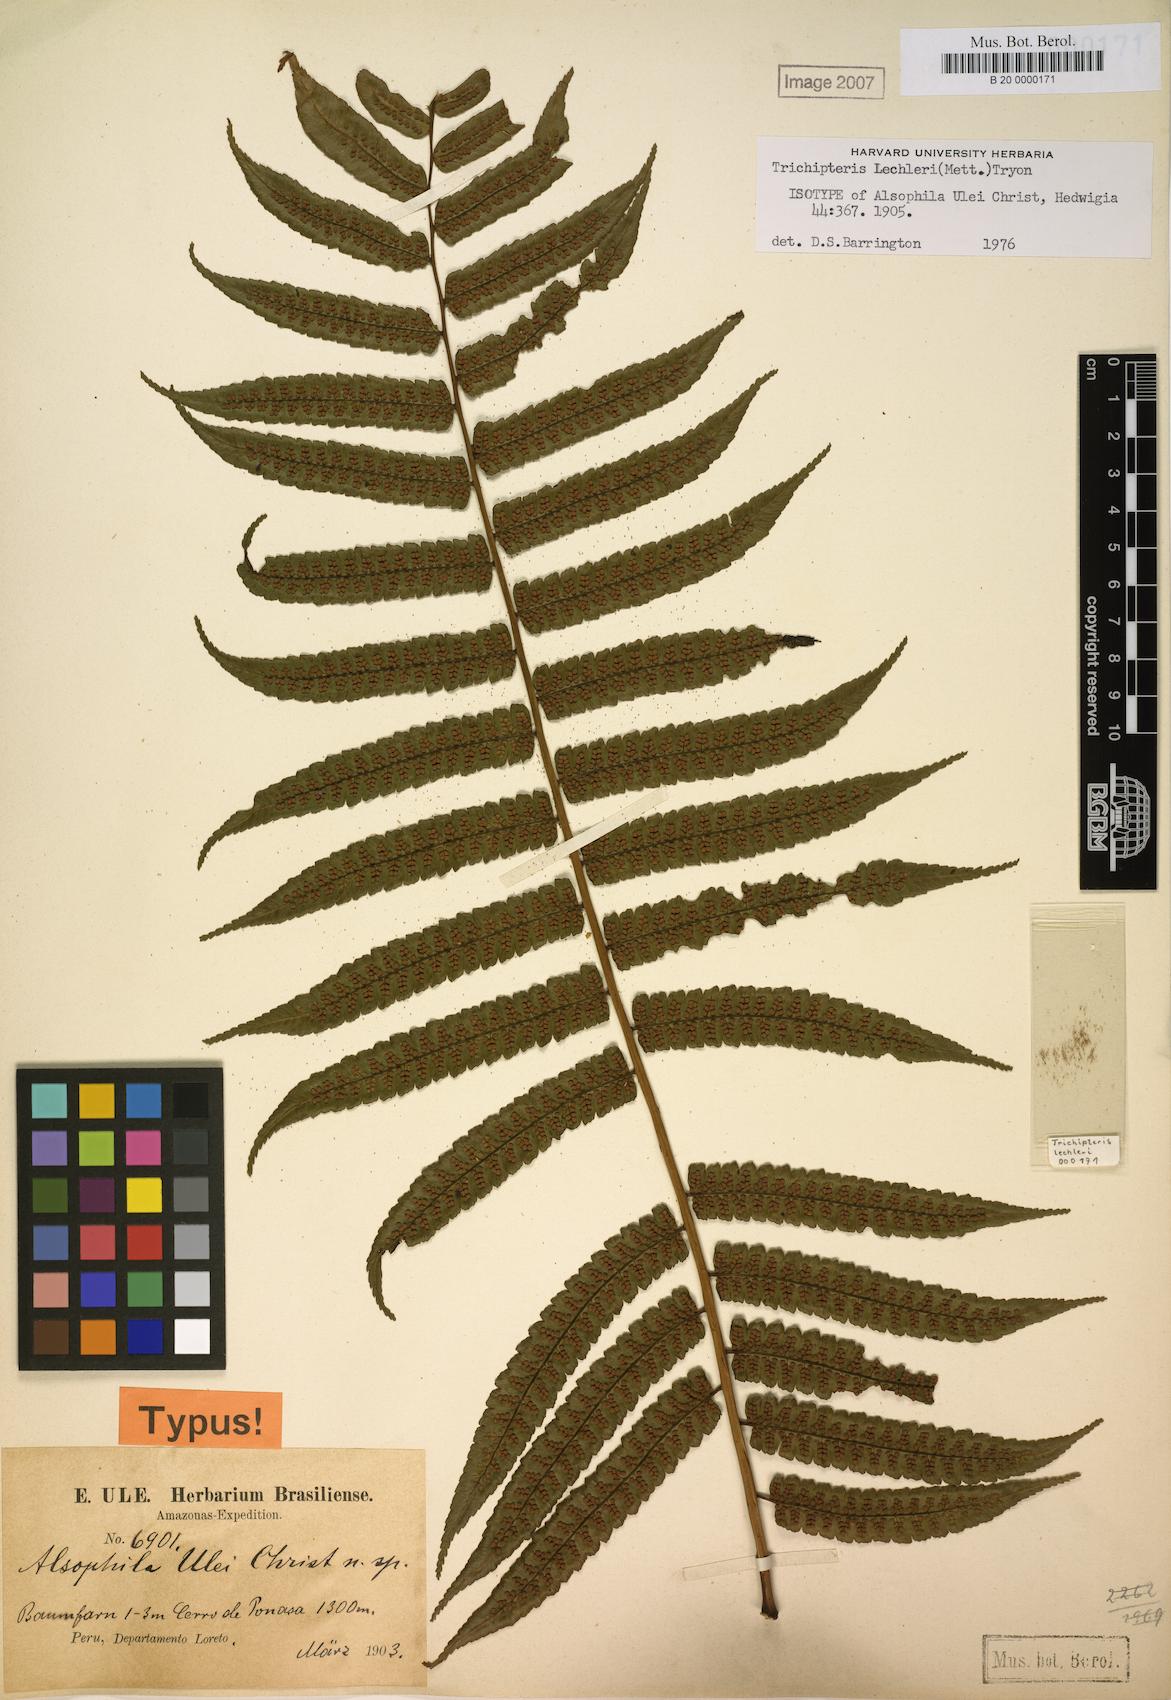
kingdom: Plantae
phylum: Tracheophyta
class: Polypodiopsida
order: Cyatheales
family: Cyatheaceae
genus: Cyathea
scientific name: Cyathea ulei
